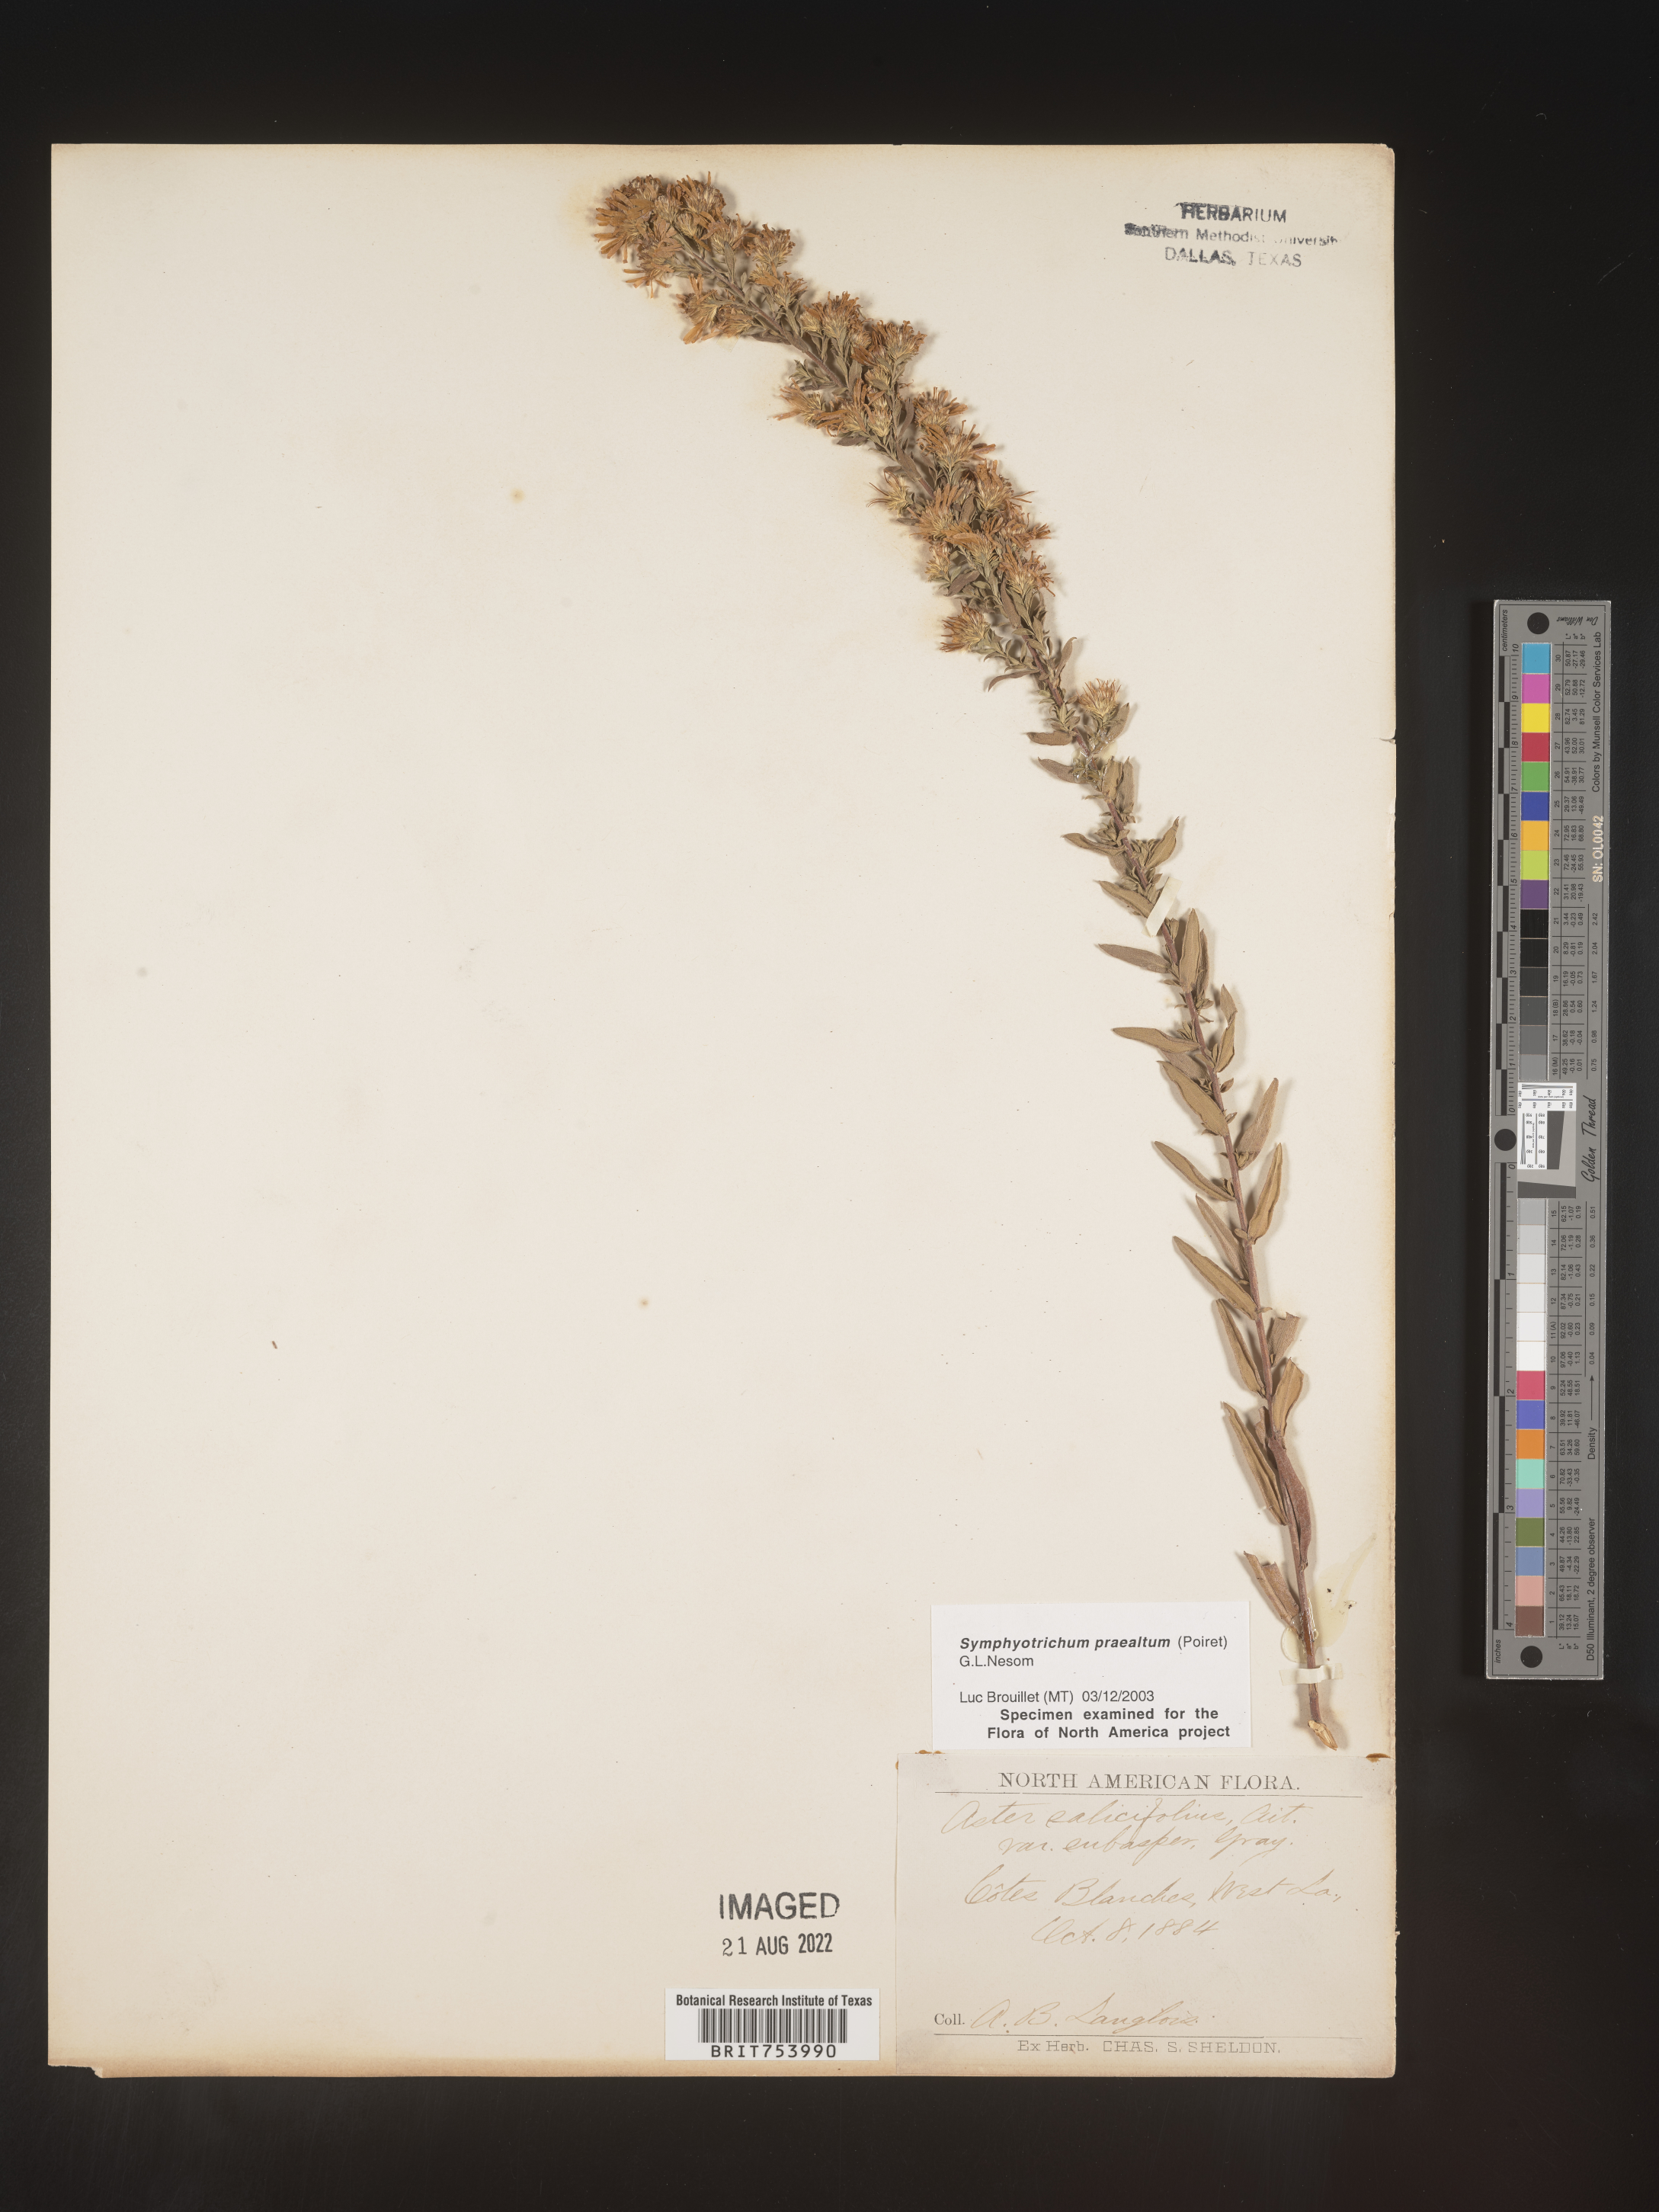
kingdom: Plantae
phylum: Tracheophyta
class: Magnoliopsida
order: Asterales
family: Asteraceae
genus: Symphyotrichum
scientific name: Symphyotrichum praealtum
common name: Willow aster
